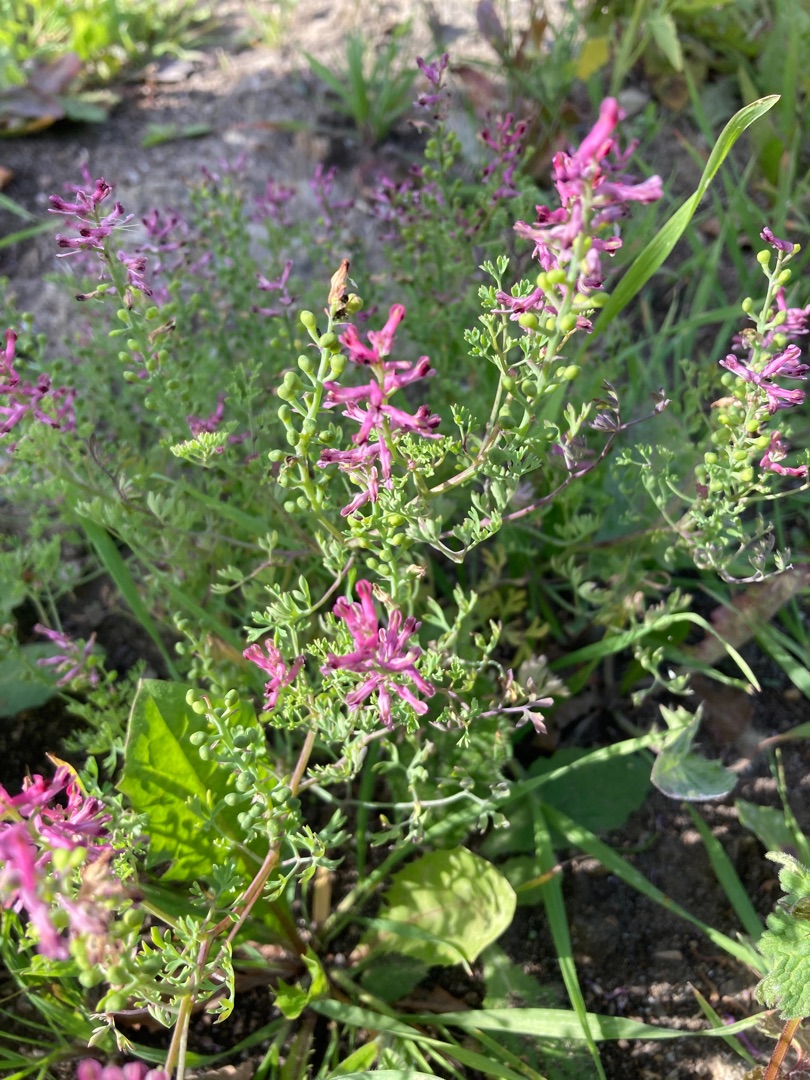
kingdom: Plantae
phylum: Tracheophyta
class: Magnoliopsida
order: Ranunculales
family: Papaveraceae
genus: Fumaria
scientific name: Fumaria officinalis
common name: Læge-jordrøg
